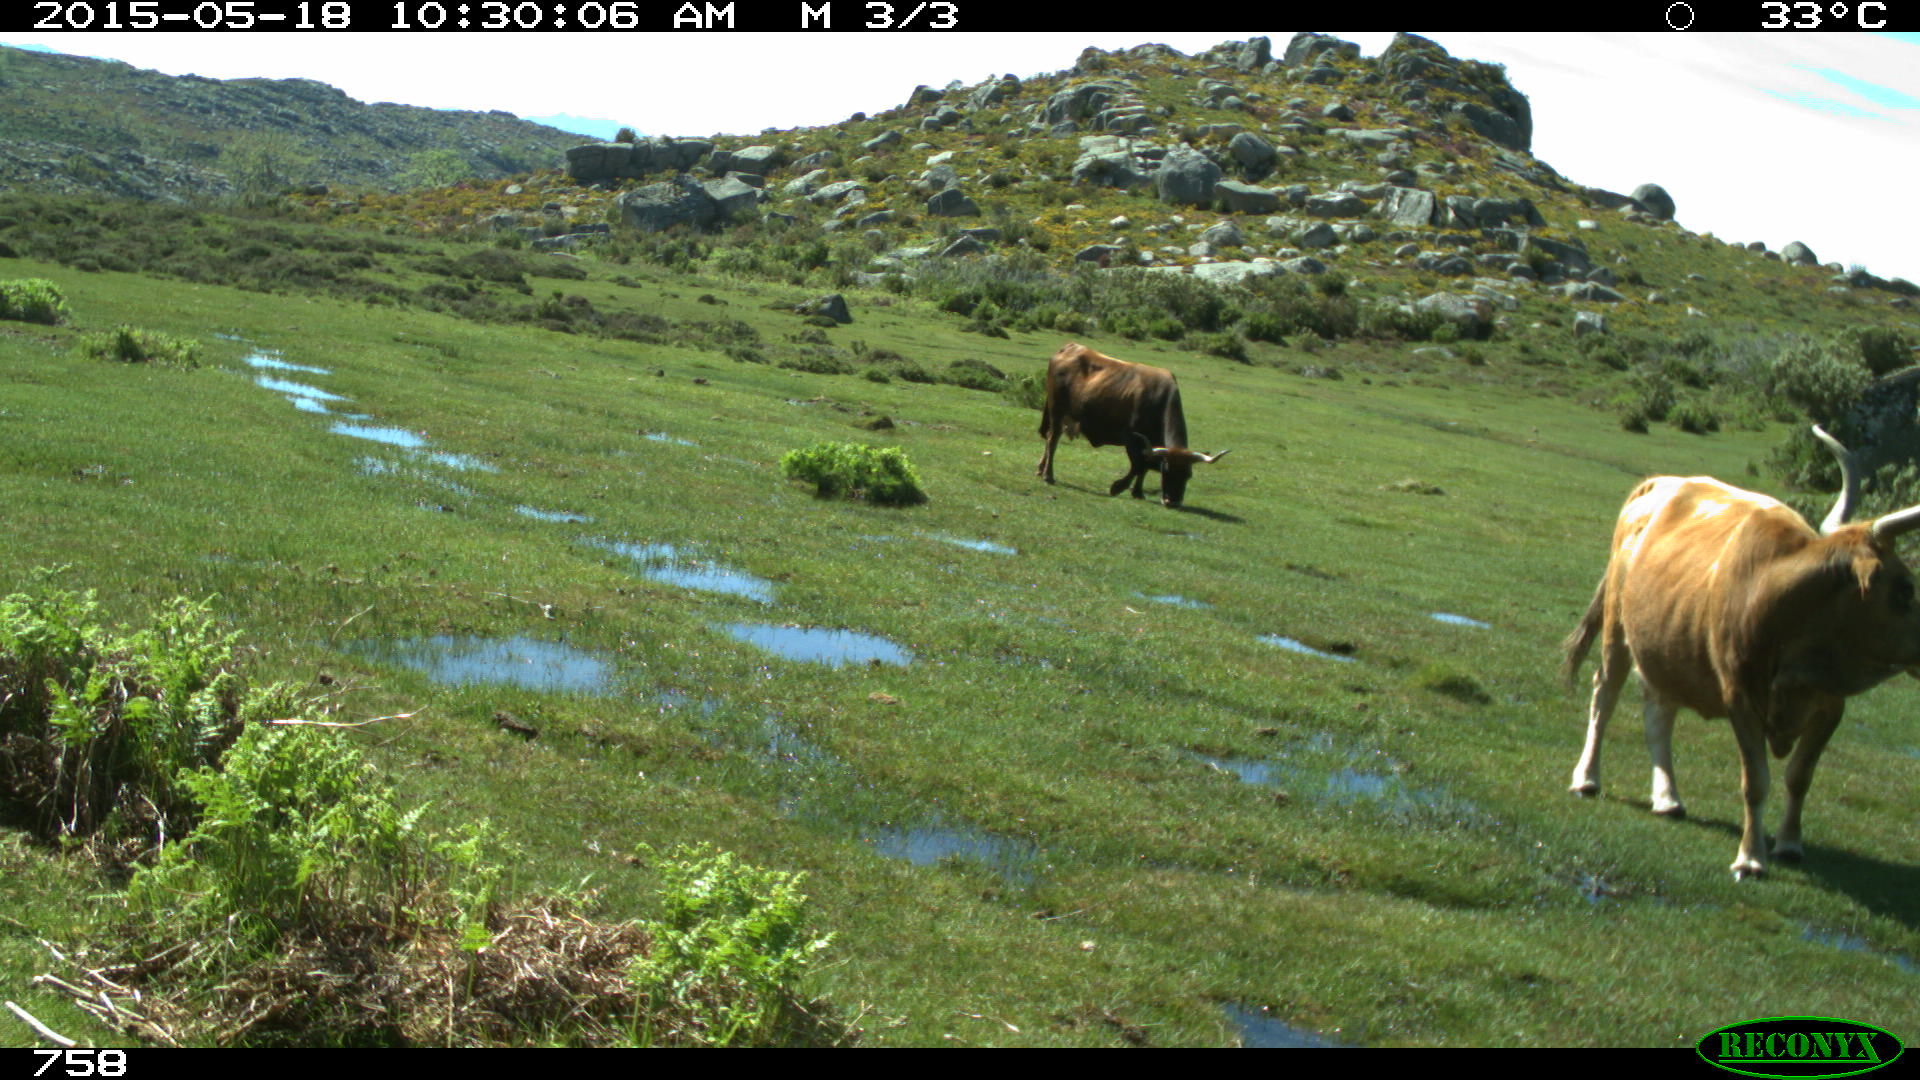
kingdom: Animalia
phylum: Chordata
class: Mammalia
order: Artiodactyla
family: Bovidae
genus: Bos
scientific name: Bos taurus
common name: Domesticated cattle
